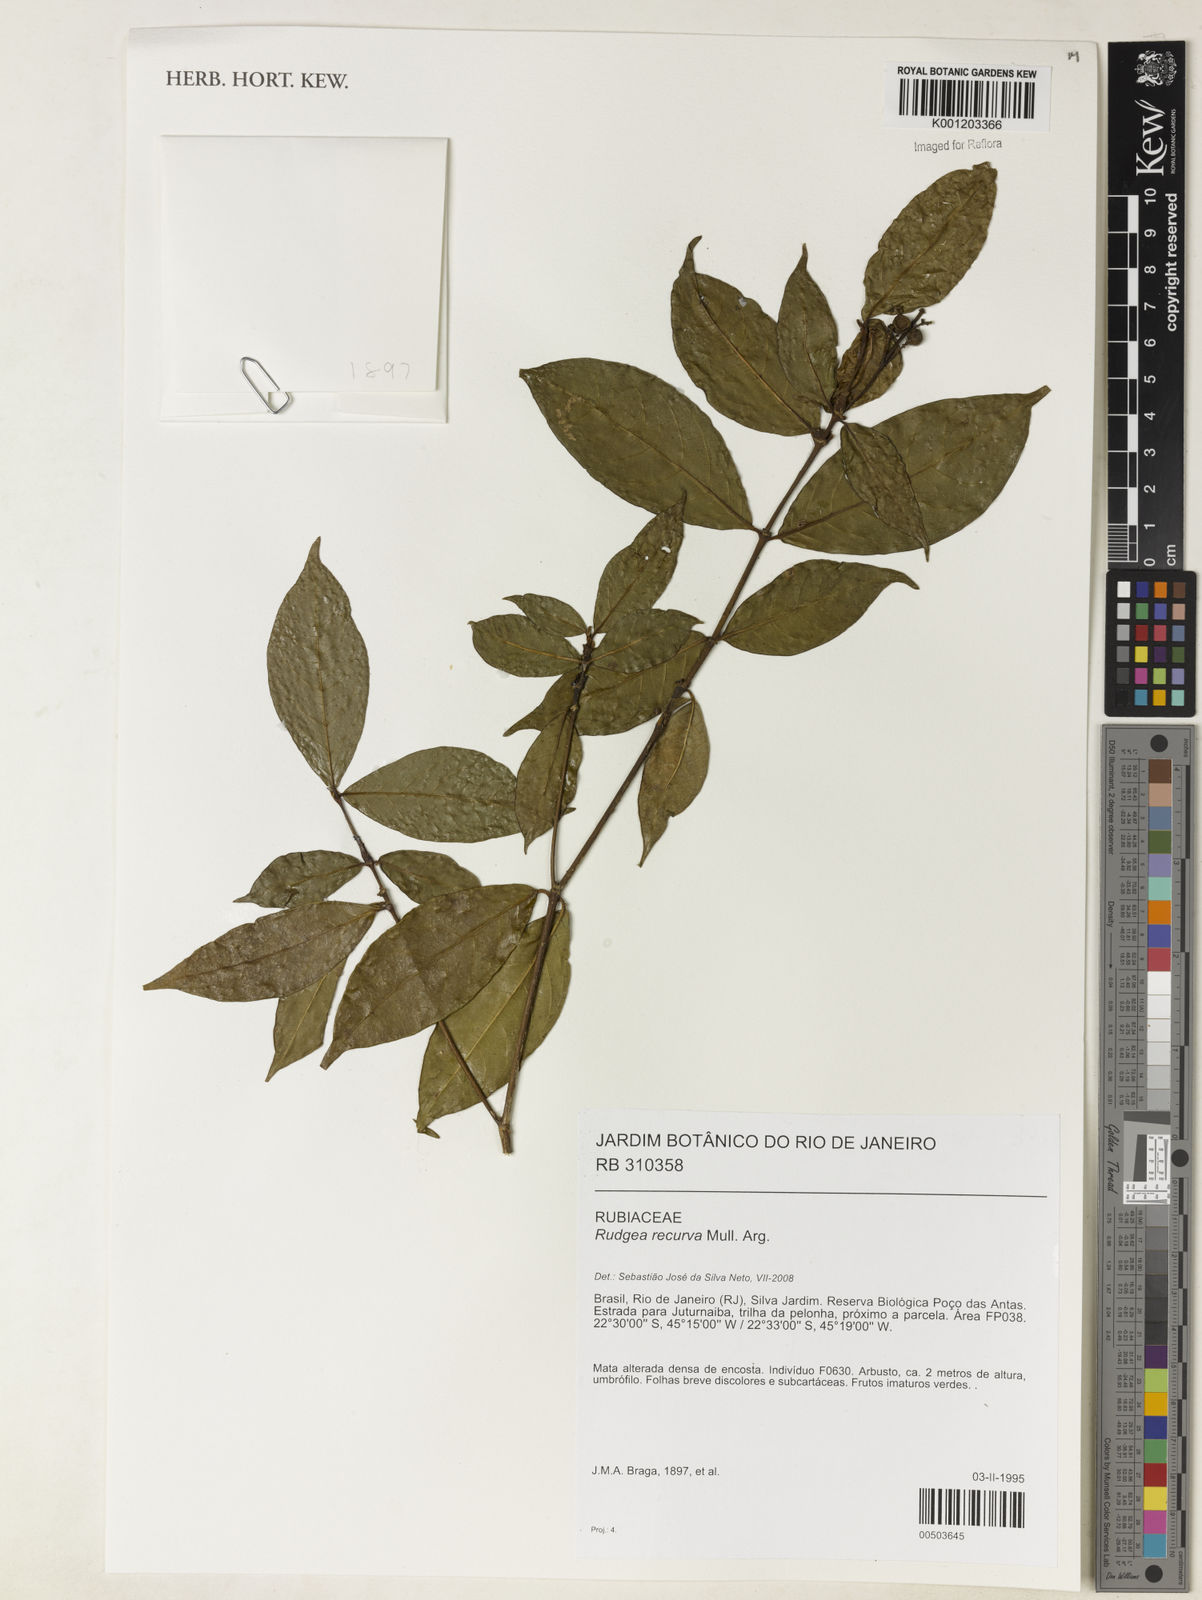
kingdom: Plantae
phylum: Tracheophyta
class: Magnoliopsida
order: Gentianales
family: Rubiaceae
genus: Rudgea
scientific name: Rudgea
